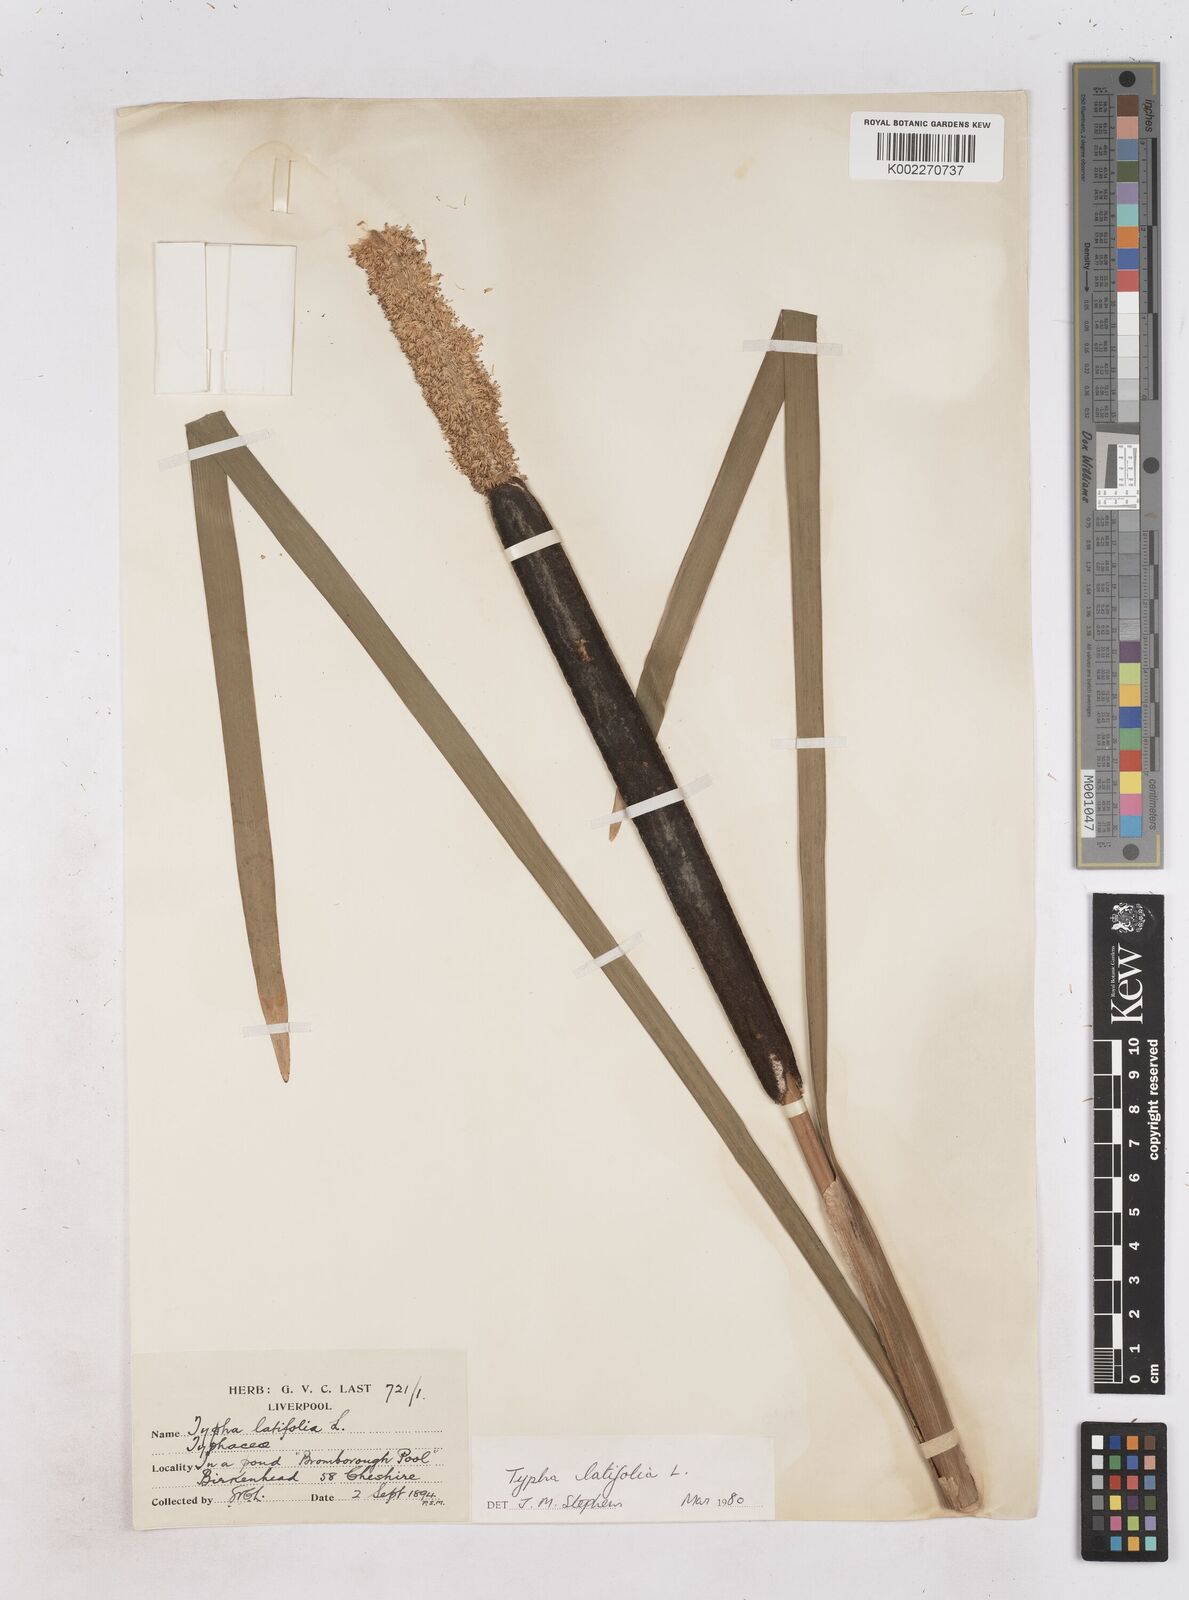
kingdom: Plantae
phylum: Tracheophyta
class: Liliopsida
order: Poales
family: Typhaceae
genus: Typha
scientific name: Typha latifolia
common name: Broadleaf cattail
